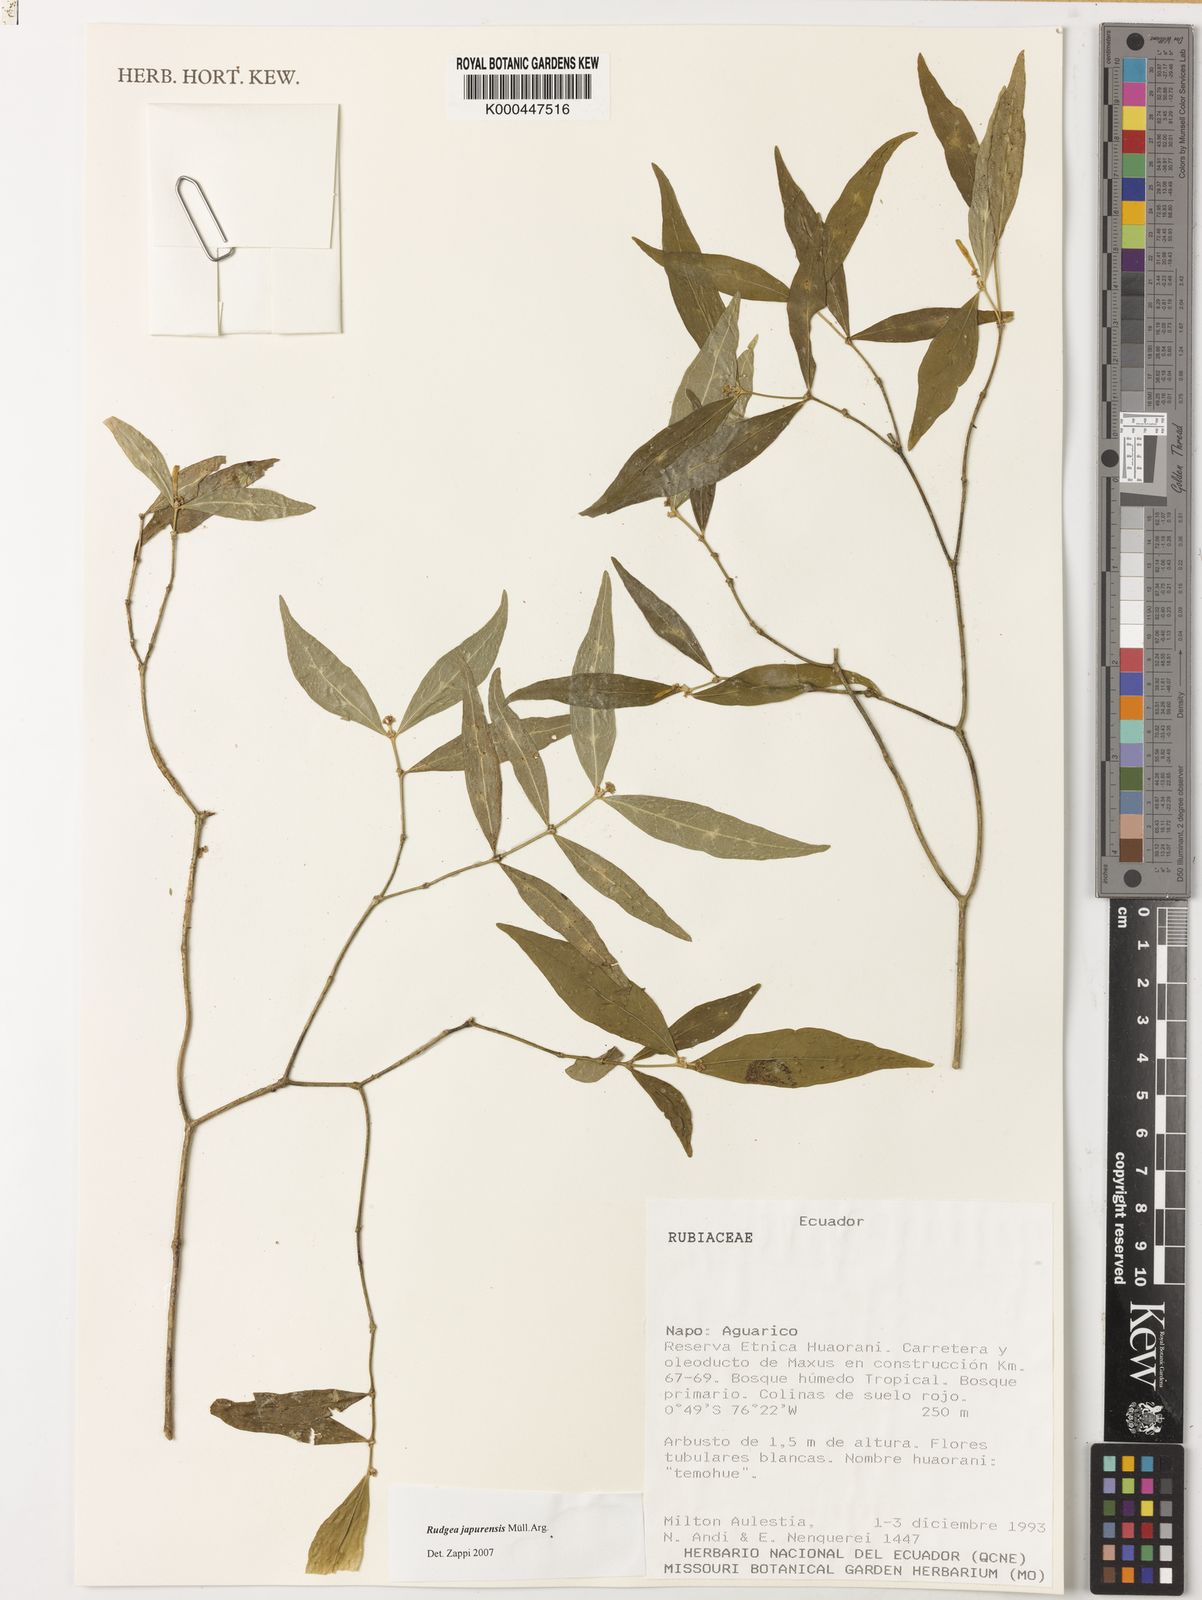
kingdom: Plantae
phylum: Tracheophyta
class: Magnoliopsida
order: Gentianales
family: Rubiaceae
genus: Rudgea
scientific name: Rudgea panurensis
